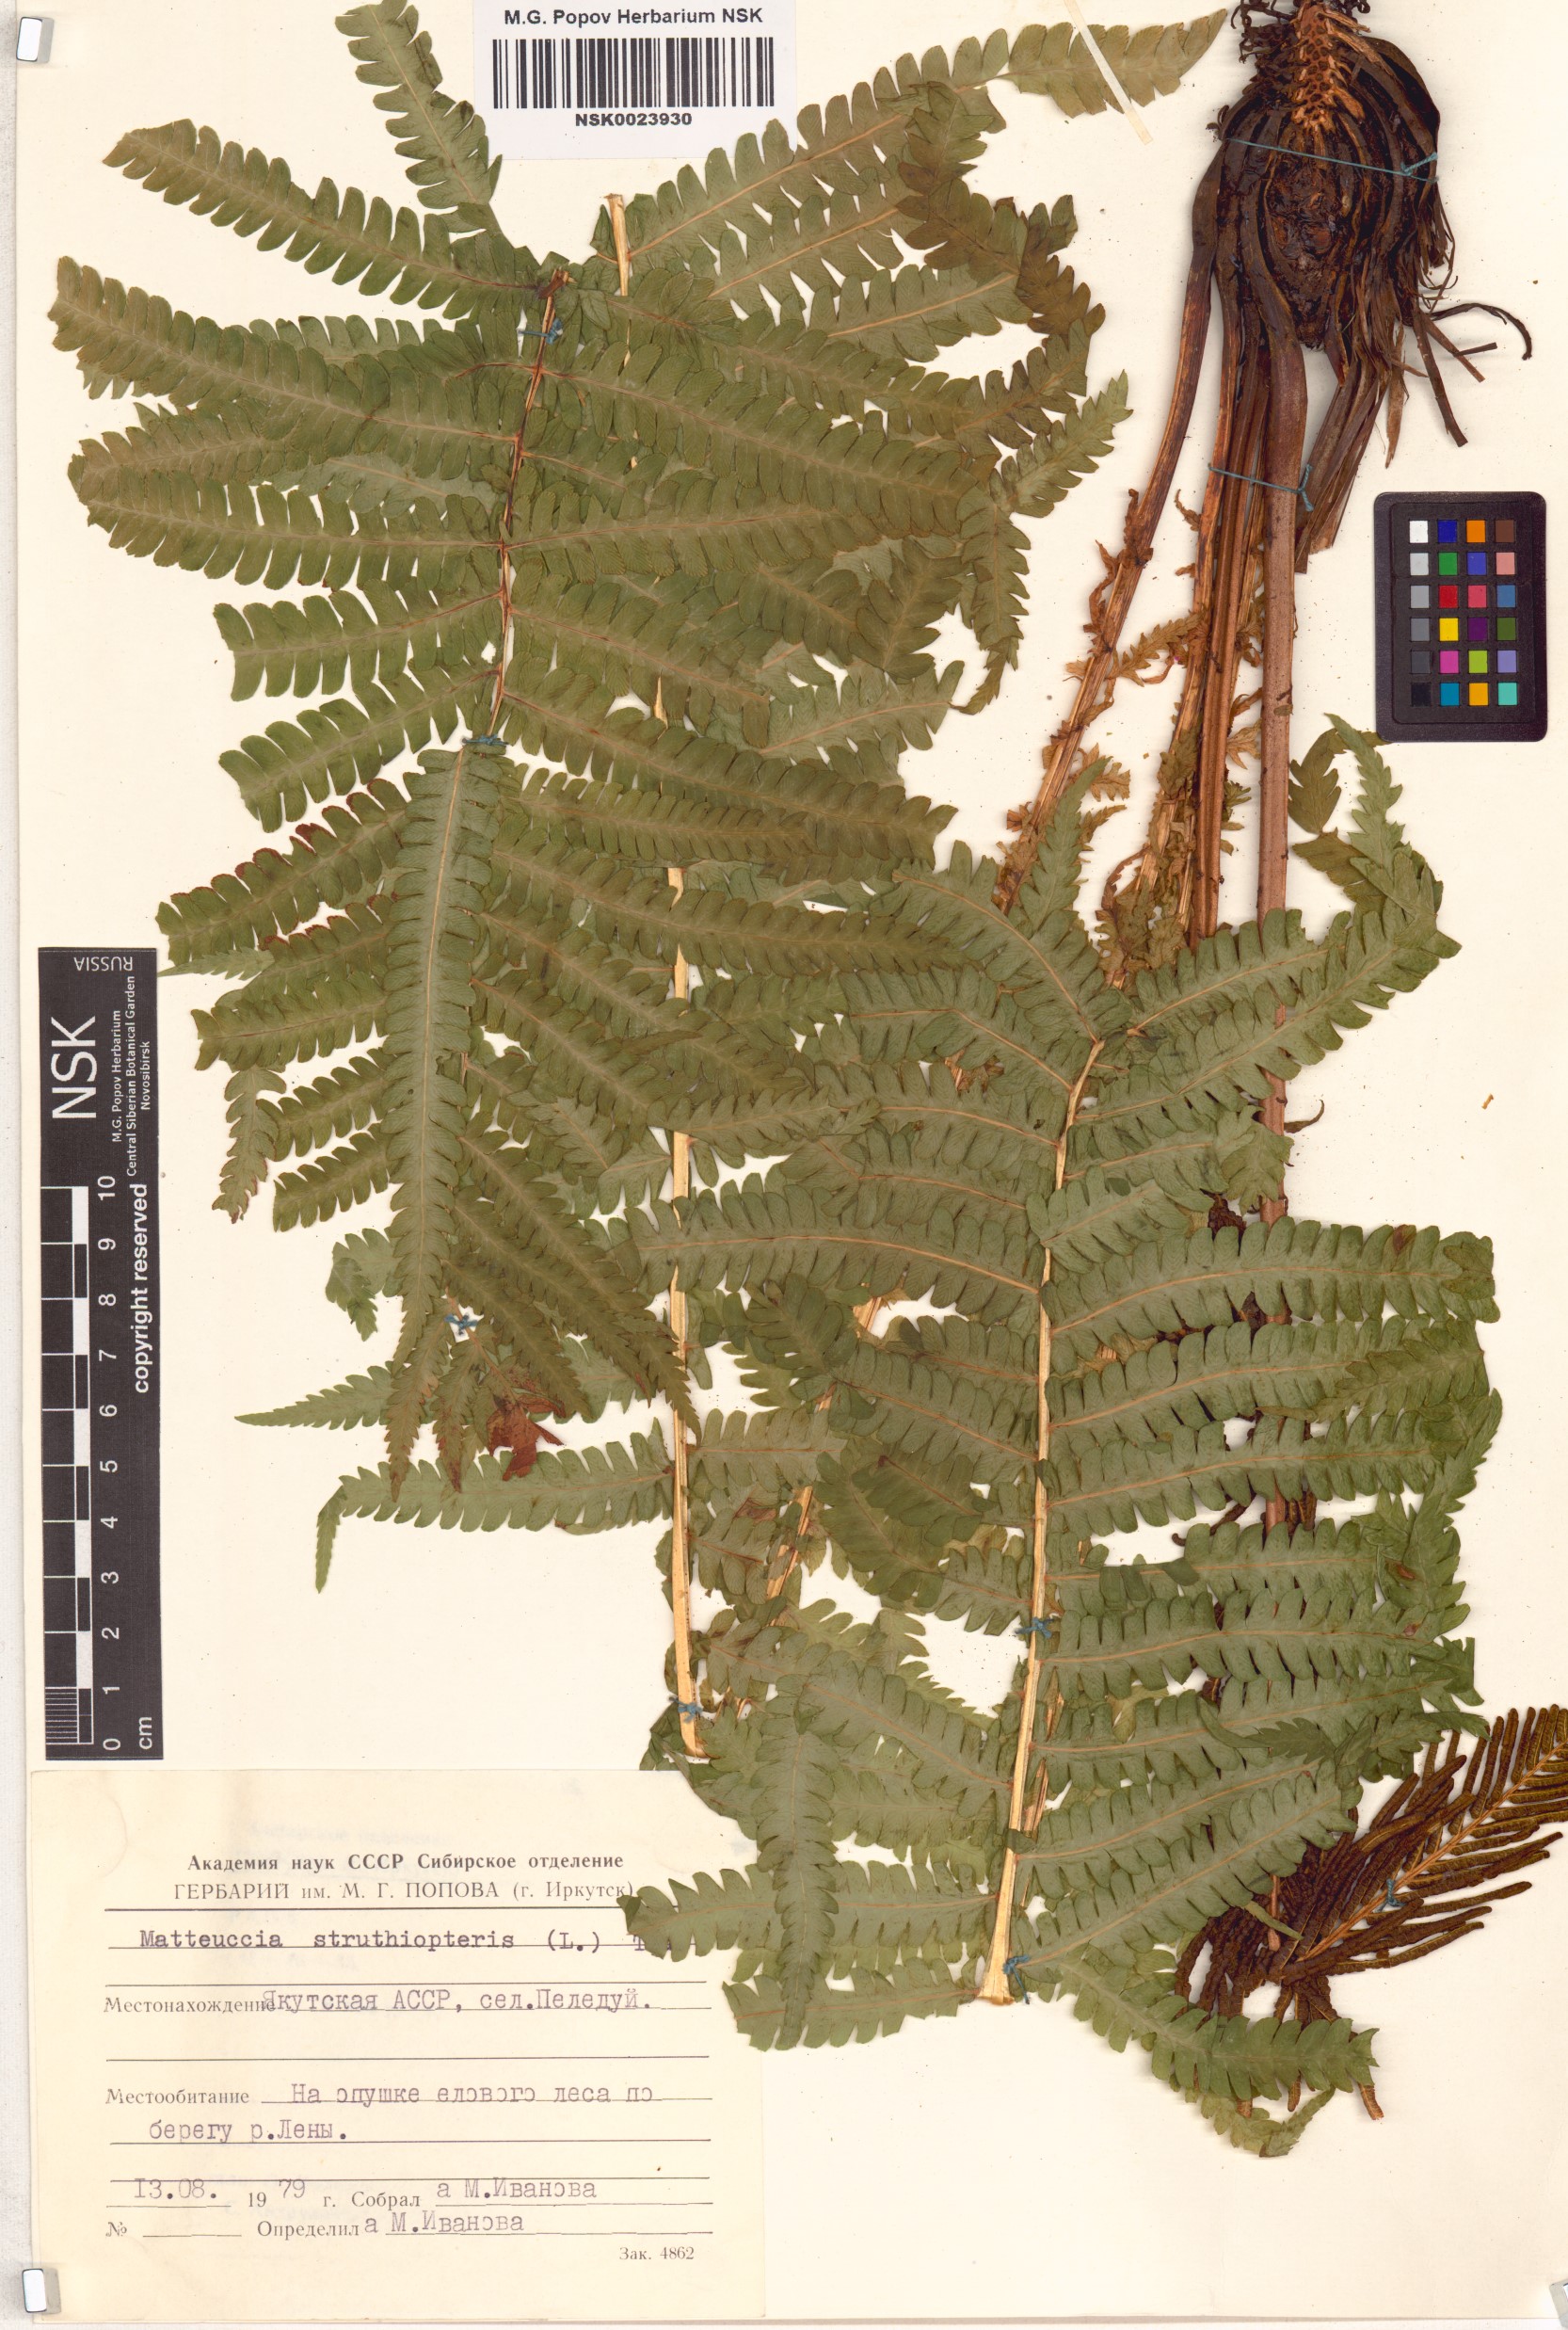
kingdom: Plantae
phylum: Tracheophyta
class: Polypodiopsida
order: Polypodiales
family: Onocleaceae
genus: Matteuccia
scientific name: Matteuccia struthiopteris
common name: Ostrich fern
